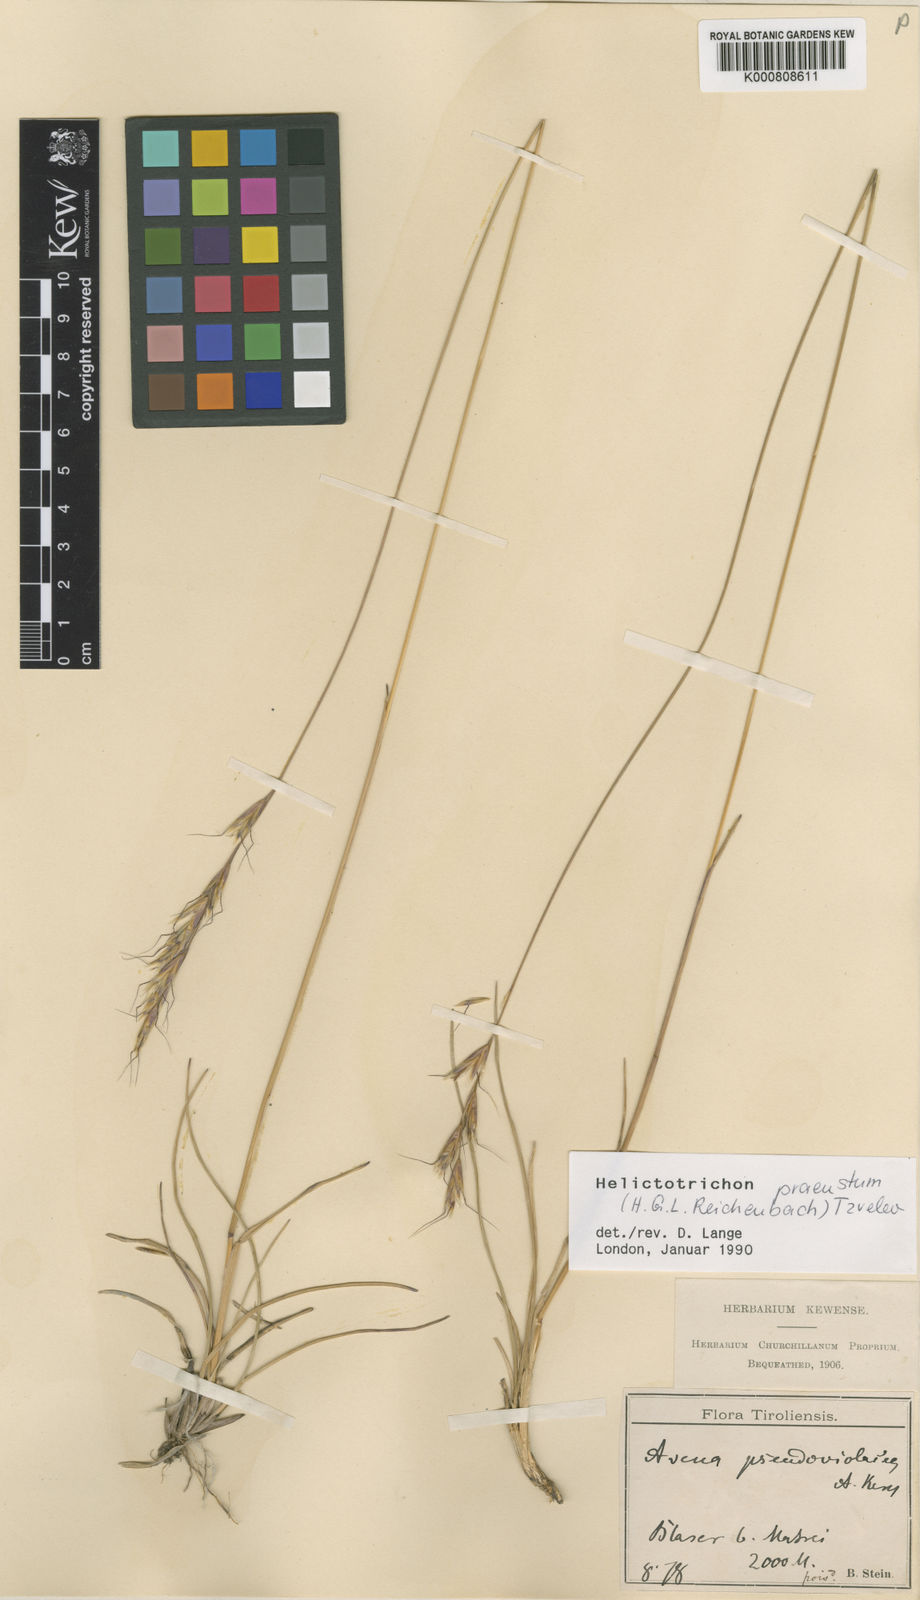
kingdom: Plantae
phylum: Tracheophyta
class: Liliopsida
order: Poales
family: Poaceae
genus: Helictochloa
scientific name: Helictochloa praeusta
